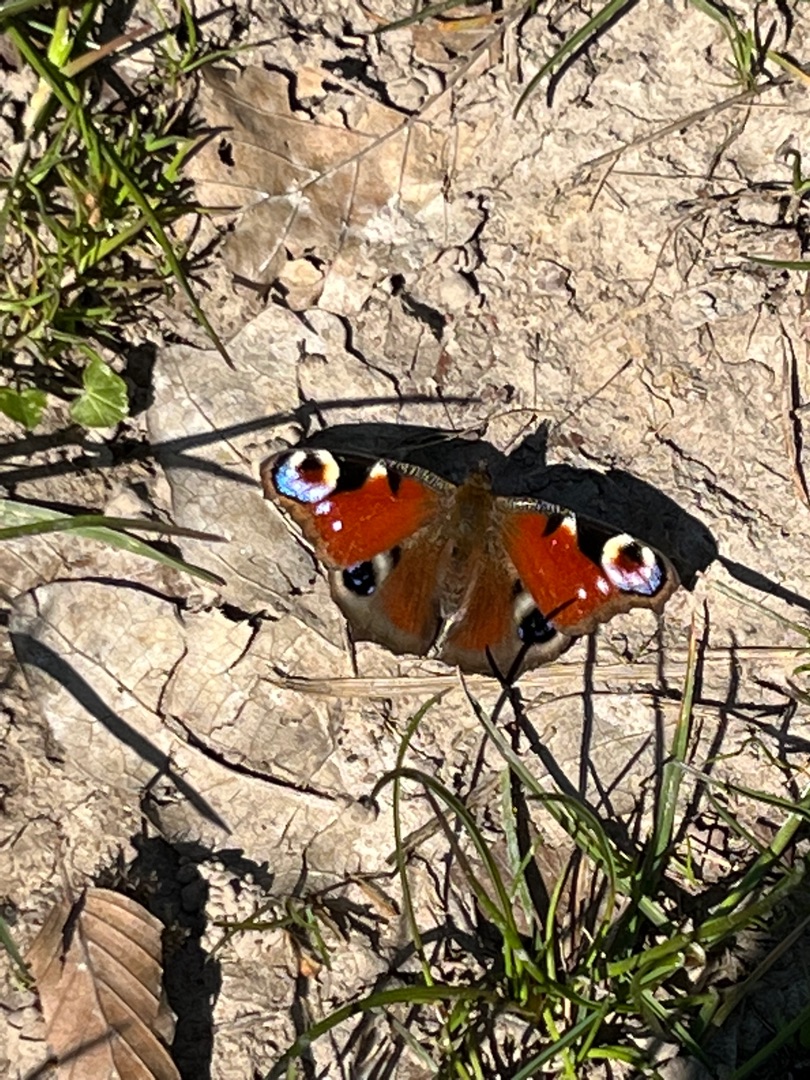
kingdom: Animalia
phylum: Arthropoda
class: Insecta
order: Lepidoptera
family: Nymphalidae
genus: Aglais
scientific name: Aglais io
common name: Dagpåfugleøje
